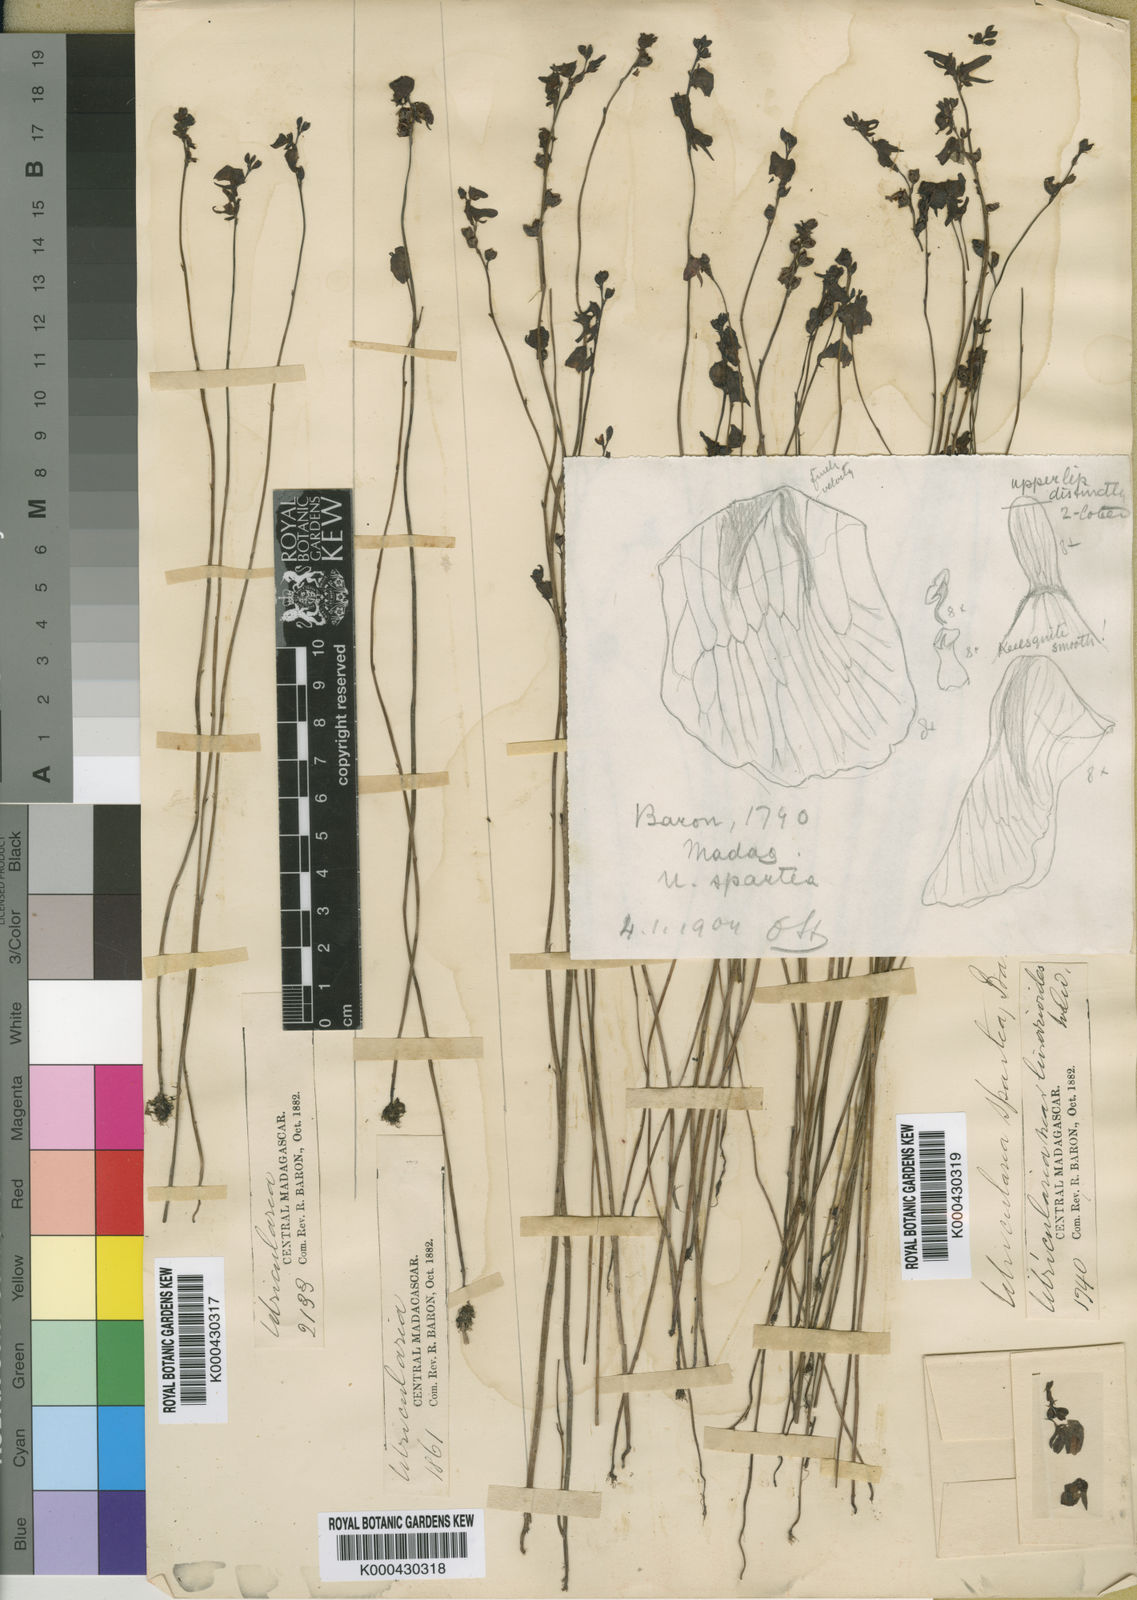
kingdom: Plantae
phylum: Tracheophyta
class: Magnoliopsida
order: Lamiales
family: Lentibulariaceae
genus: Utricularia
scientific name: Utricularia livida
